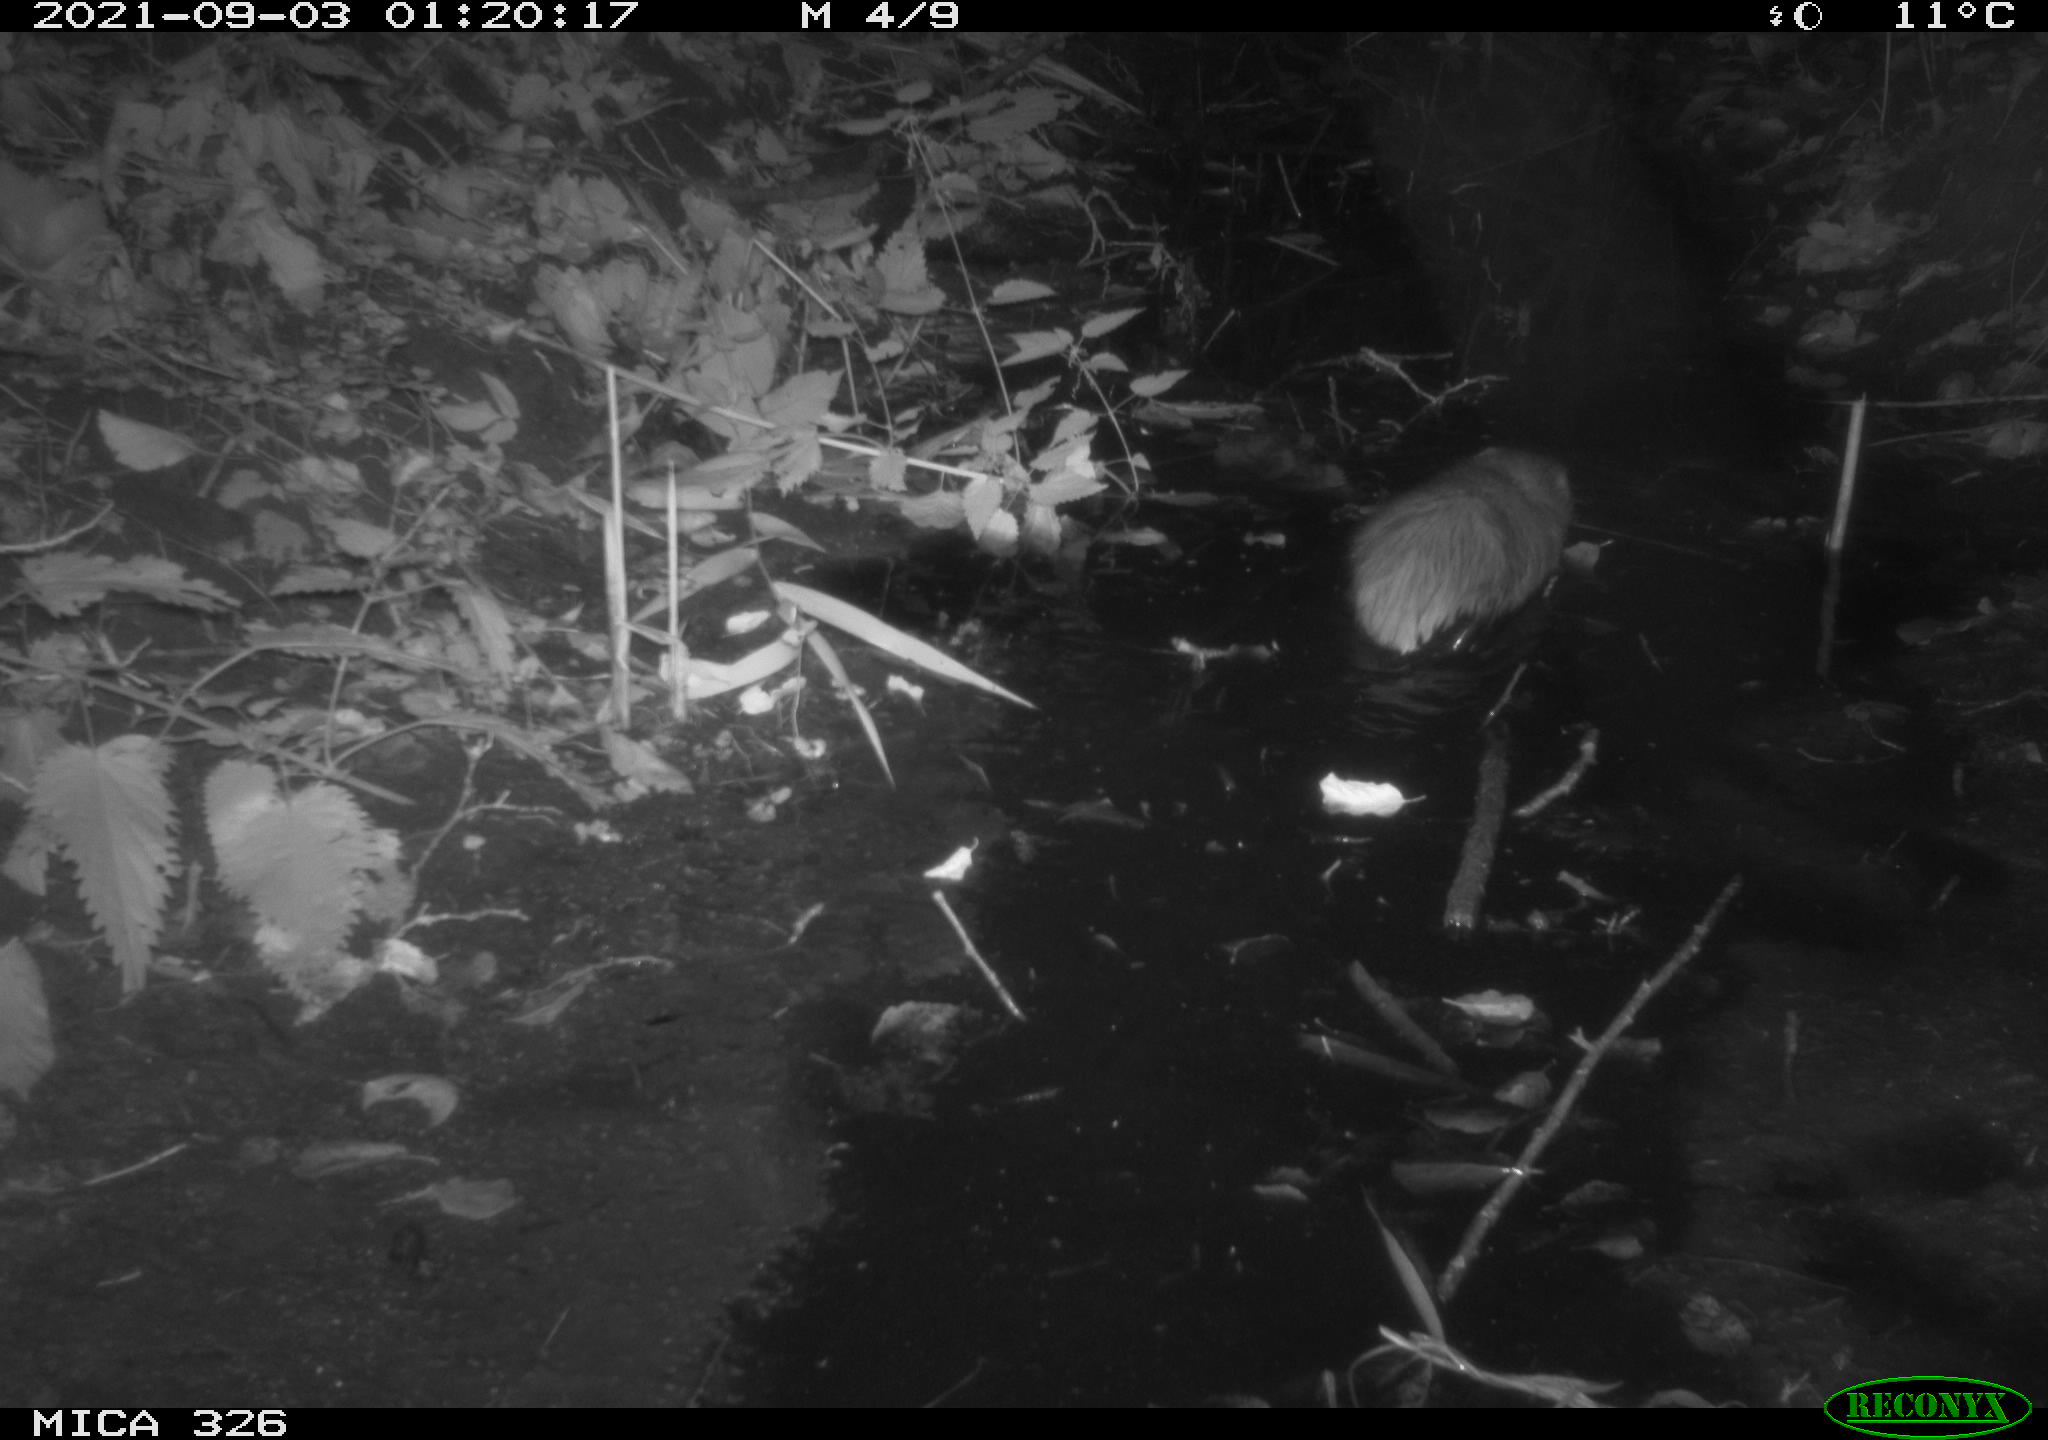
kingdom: Animalia
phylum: Chordata
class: Mammalia
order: Rodentia
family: Cricetidae
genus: Ondatra
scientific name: Ondatra zibethicus
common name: Muskrat
